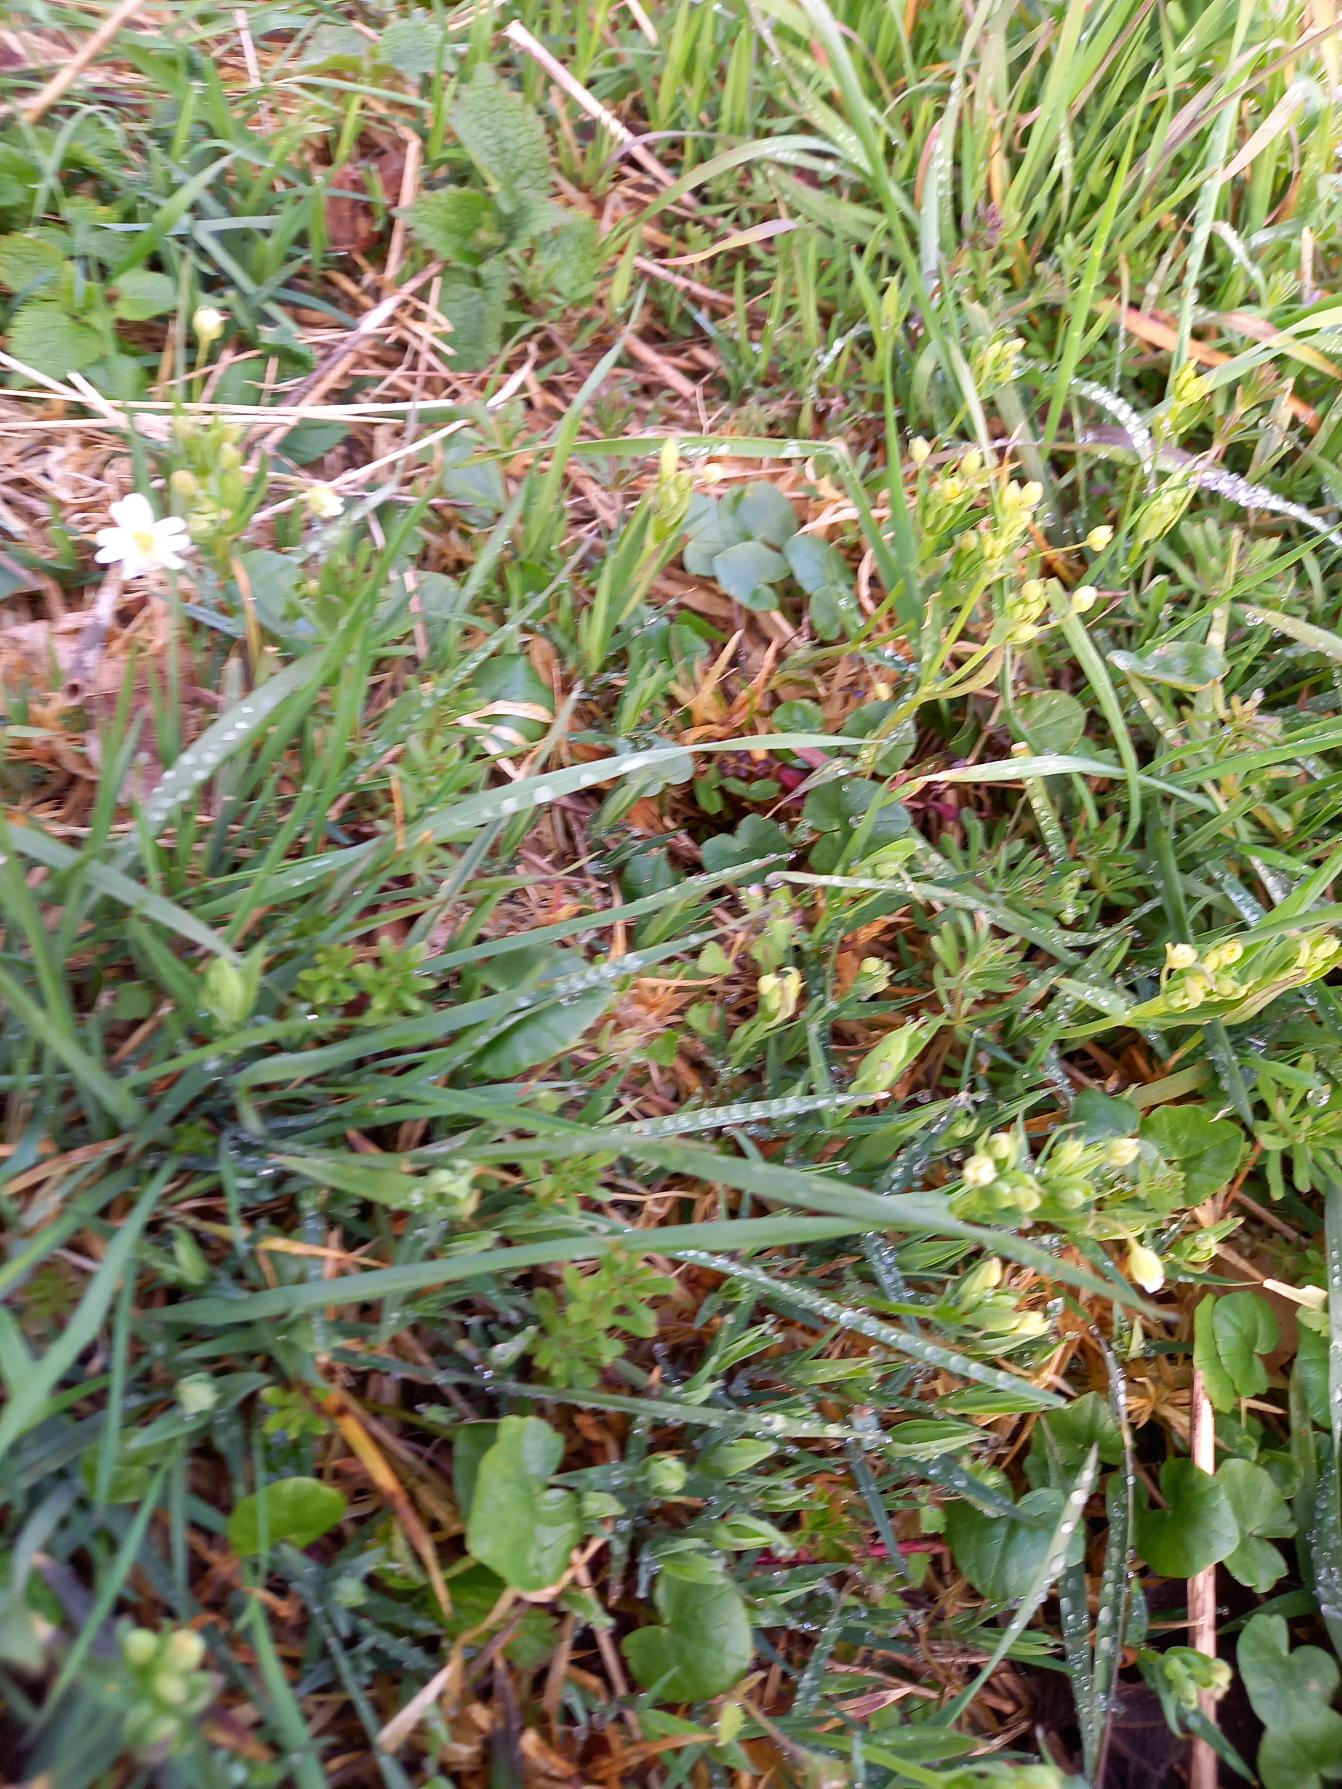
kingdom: Plantae
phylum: Tracheophyta
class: Magnoliopsida
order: Caryophyllales
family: Caryophyllaceae
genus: Rabelera
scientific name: Rabelera holostea
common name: Stor fladstjerne
